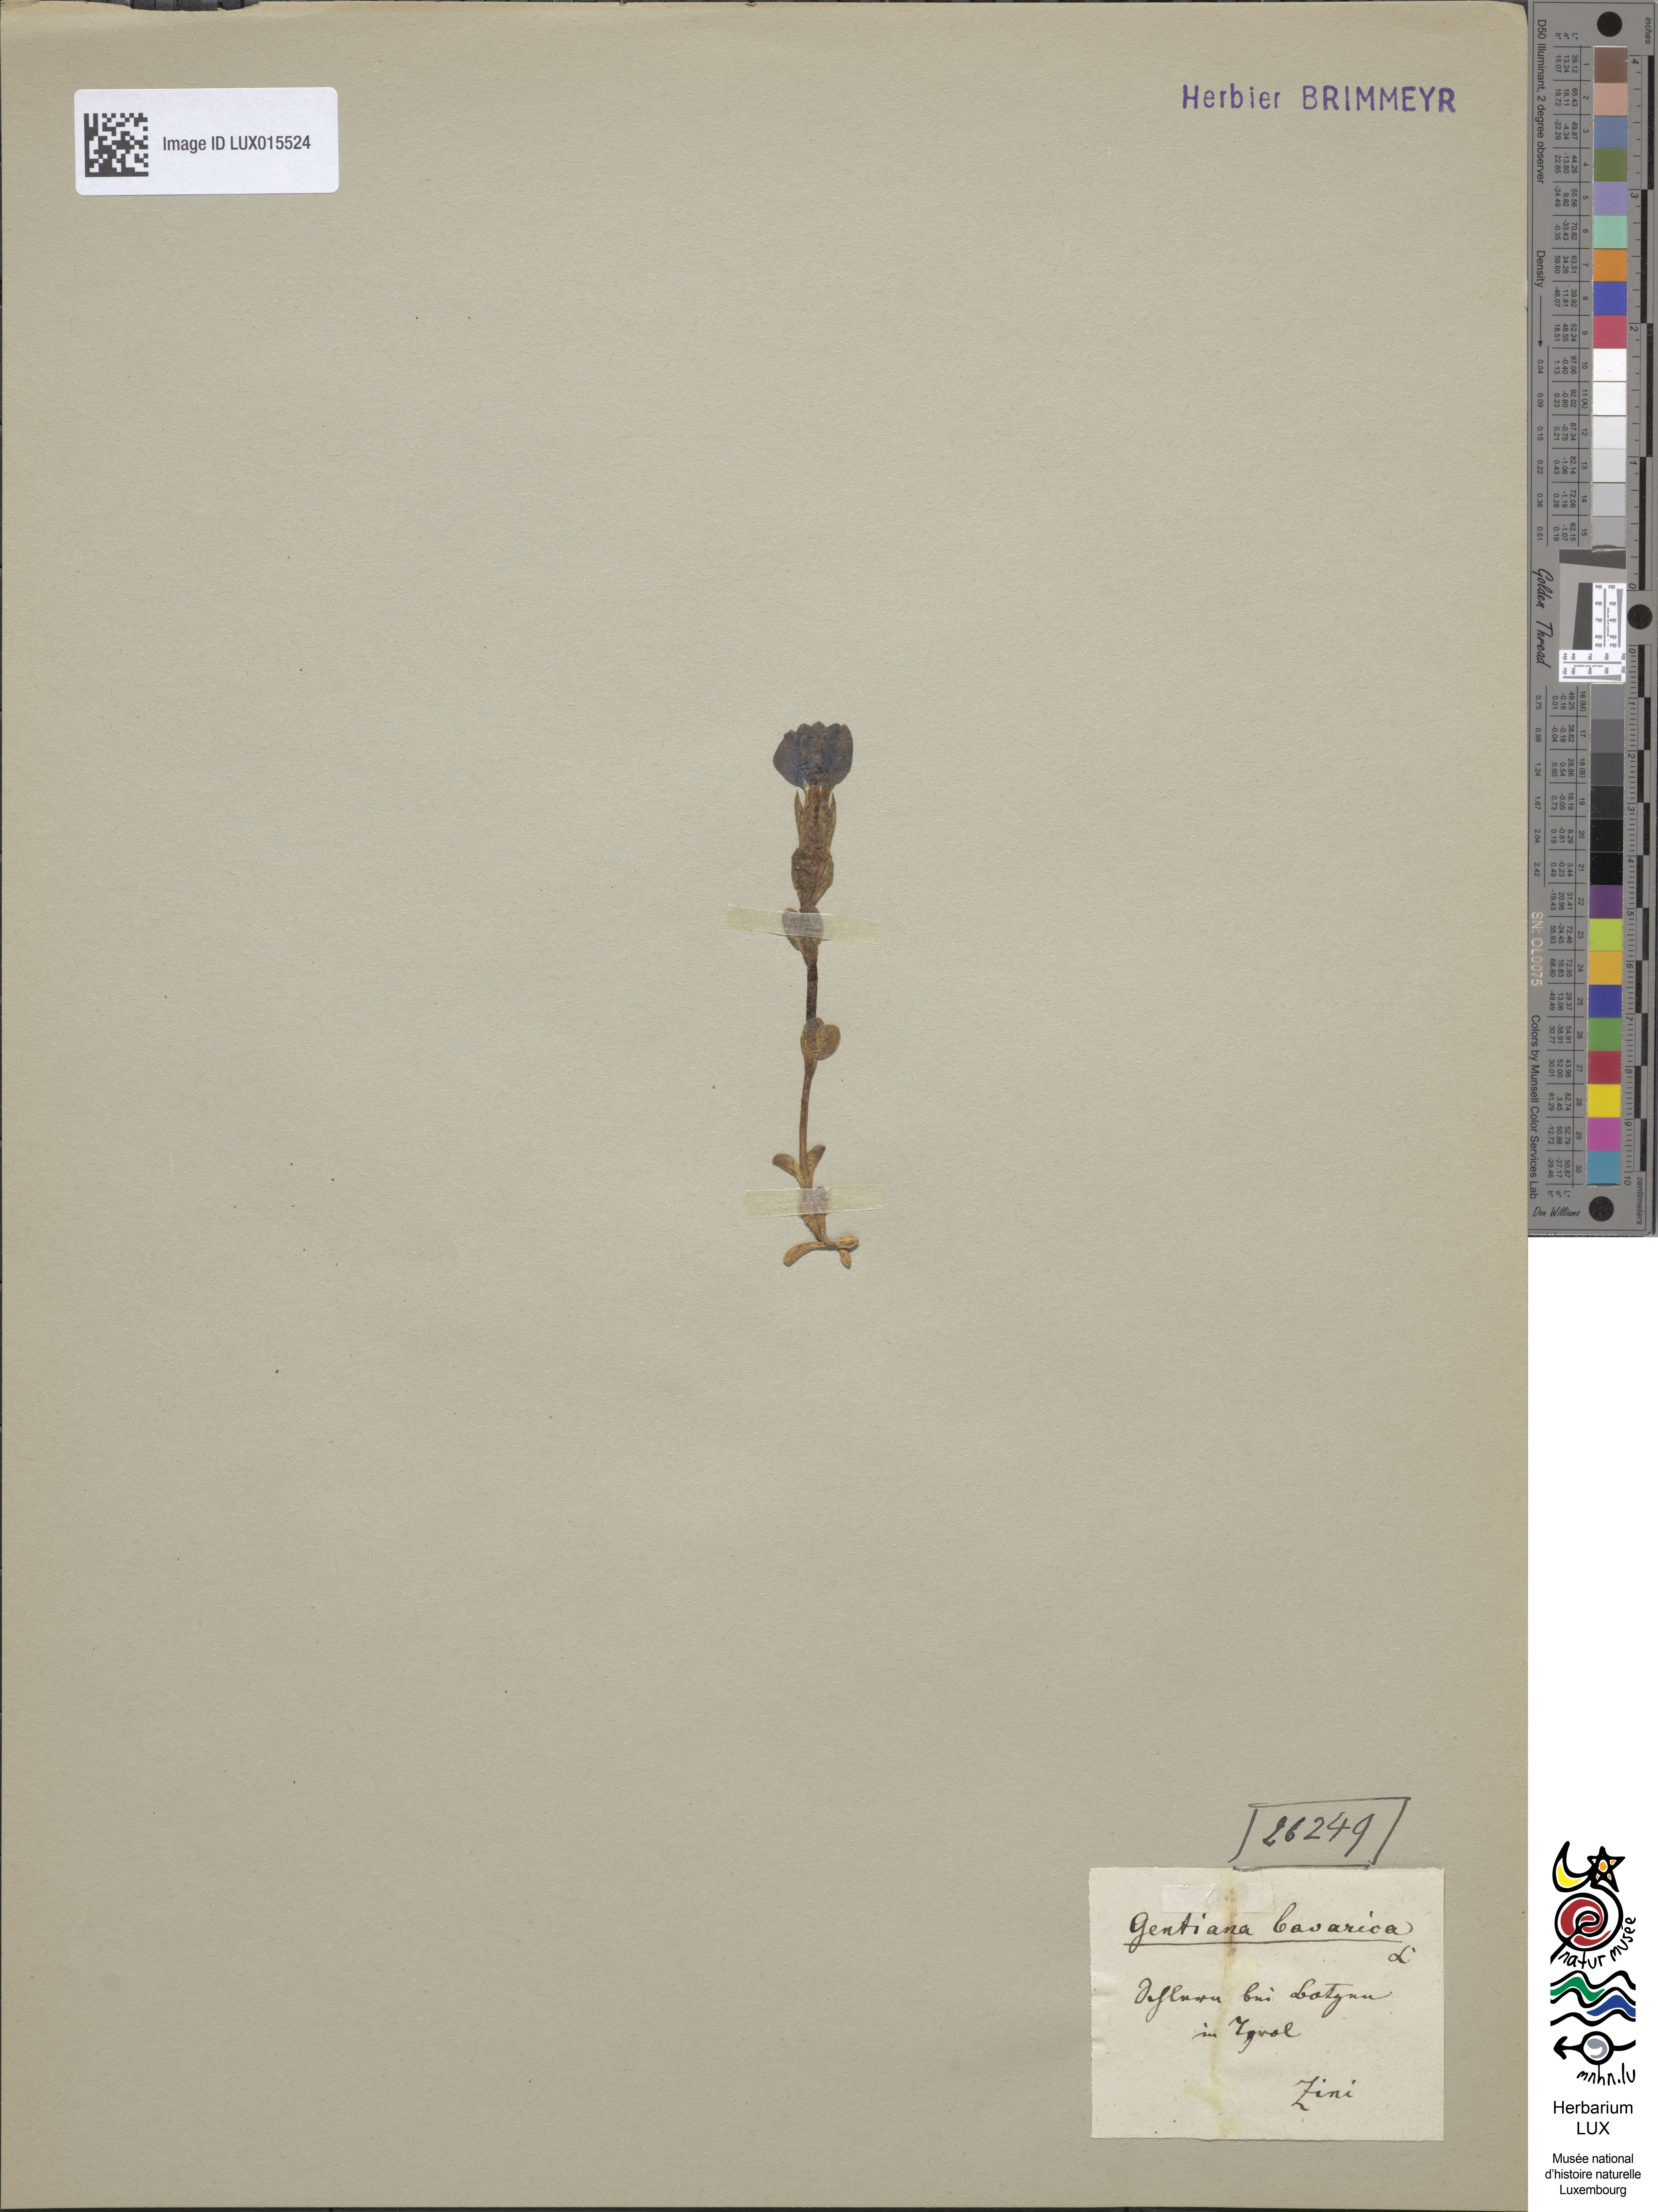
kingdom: Plantae
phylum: Tracheophyta
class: Magnoliopsida
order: Gentianales
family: Gentianaceae
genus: Gentiana
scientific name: Gentiana bavarica
